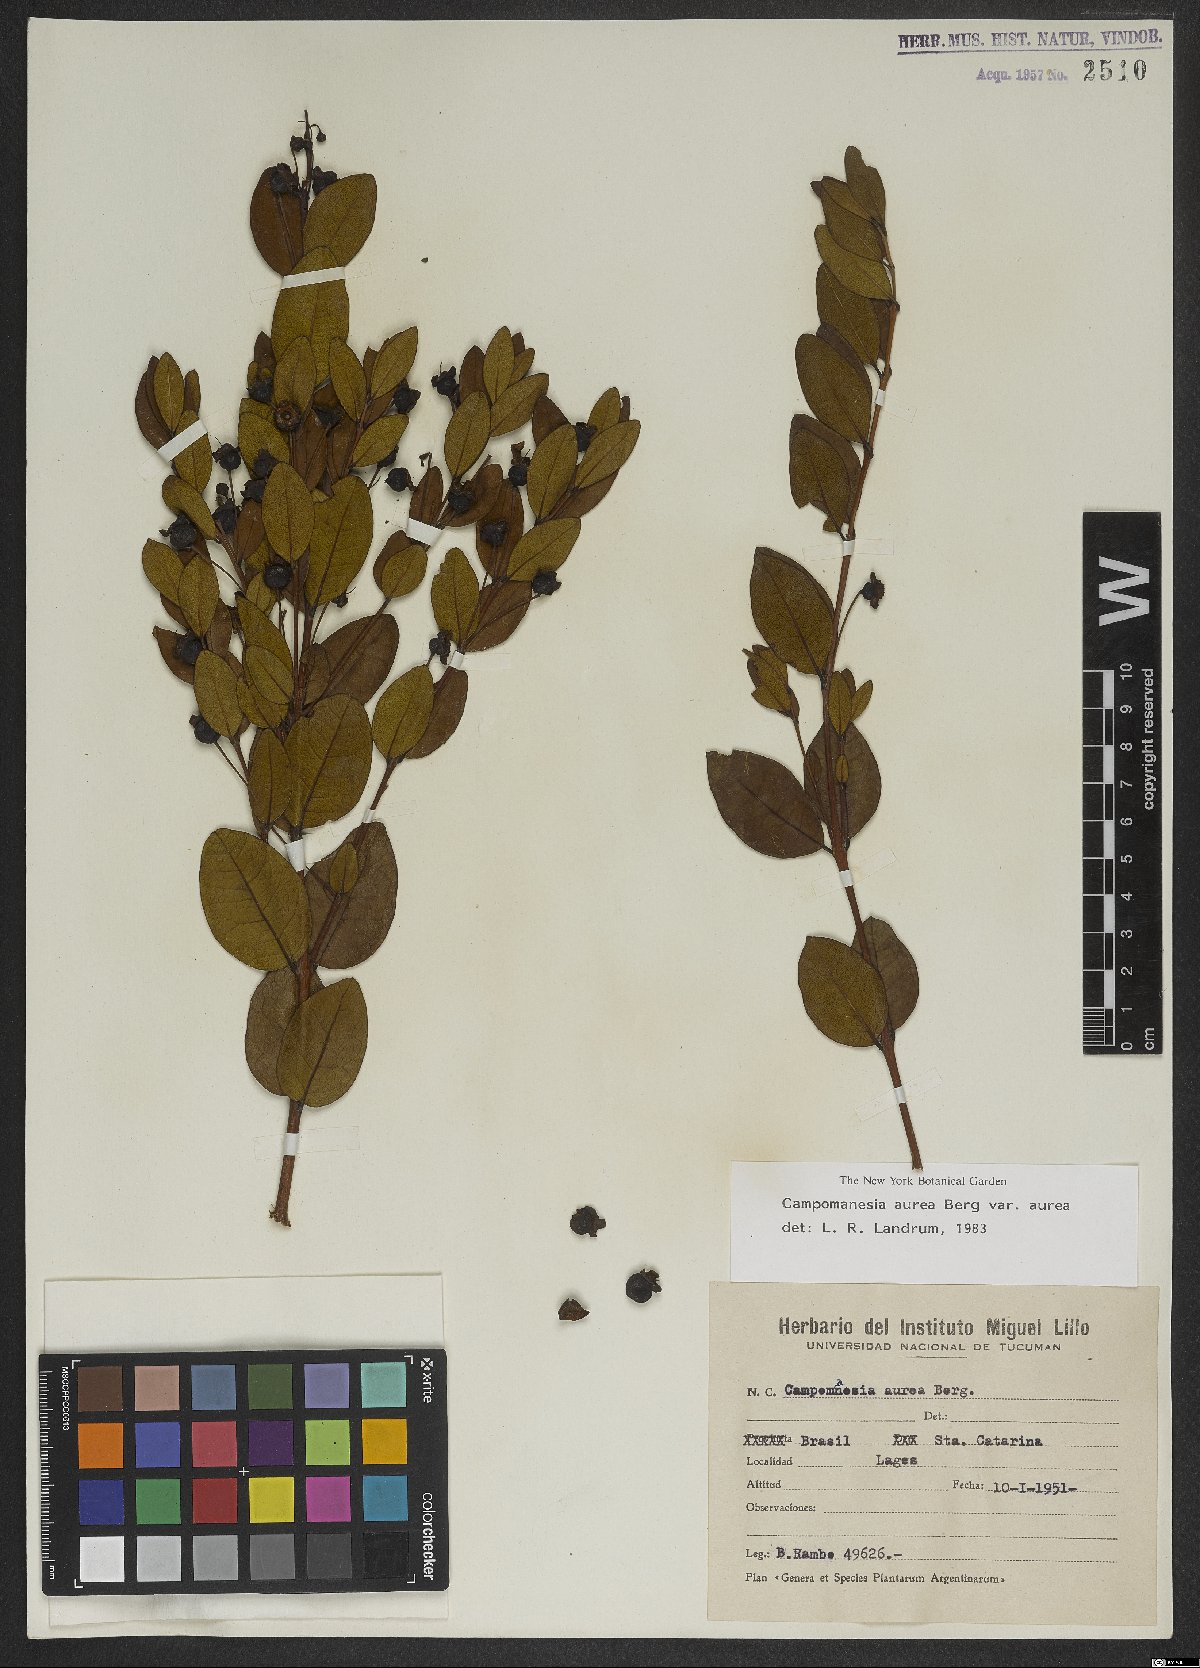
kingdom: Plantae
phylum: Tracheophyta
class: Magnoliopsida
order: Myrtales
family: Myrtaceae
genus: Campomanesia
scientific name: Campomanesia aurea
